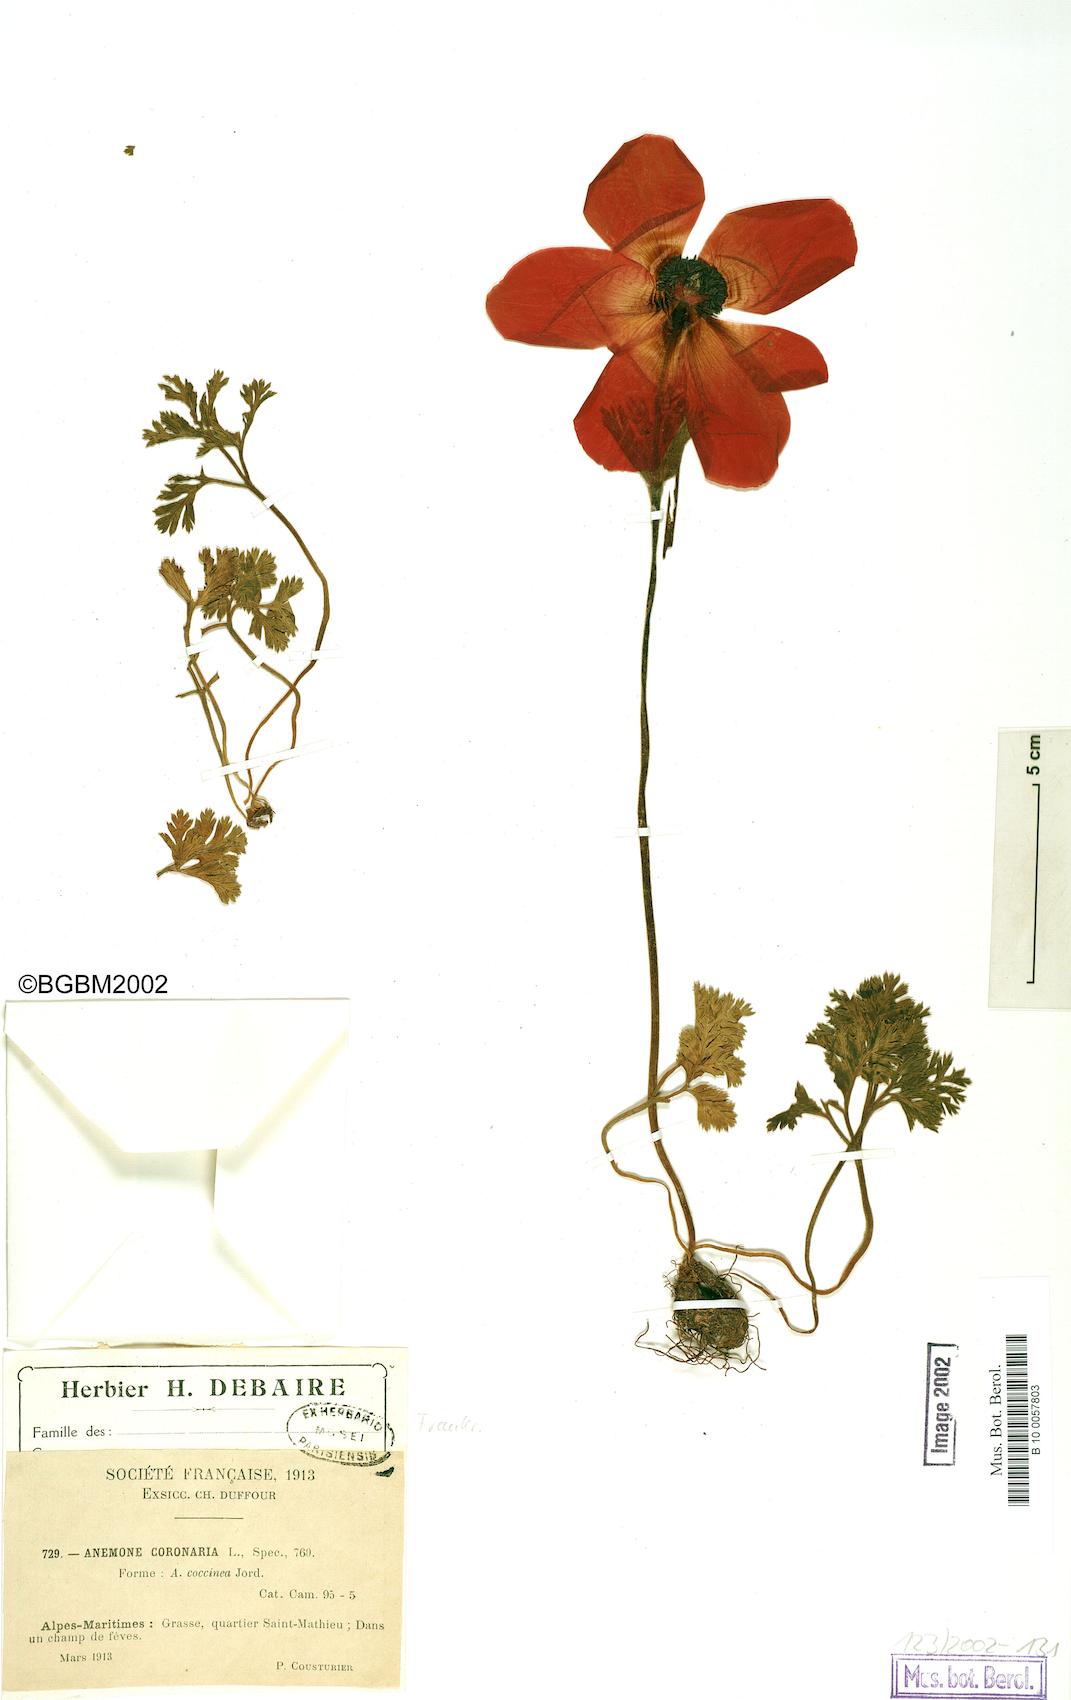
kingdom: Plantae
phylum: Tracheophyta
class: Magnoliopsida
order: Ranunculales
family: Ranunculaceae
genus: Anemone
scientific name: Anemone coronaria
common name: Poppy anemone
